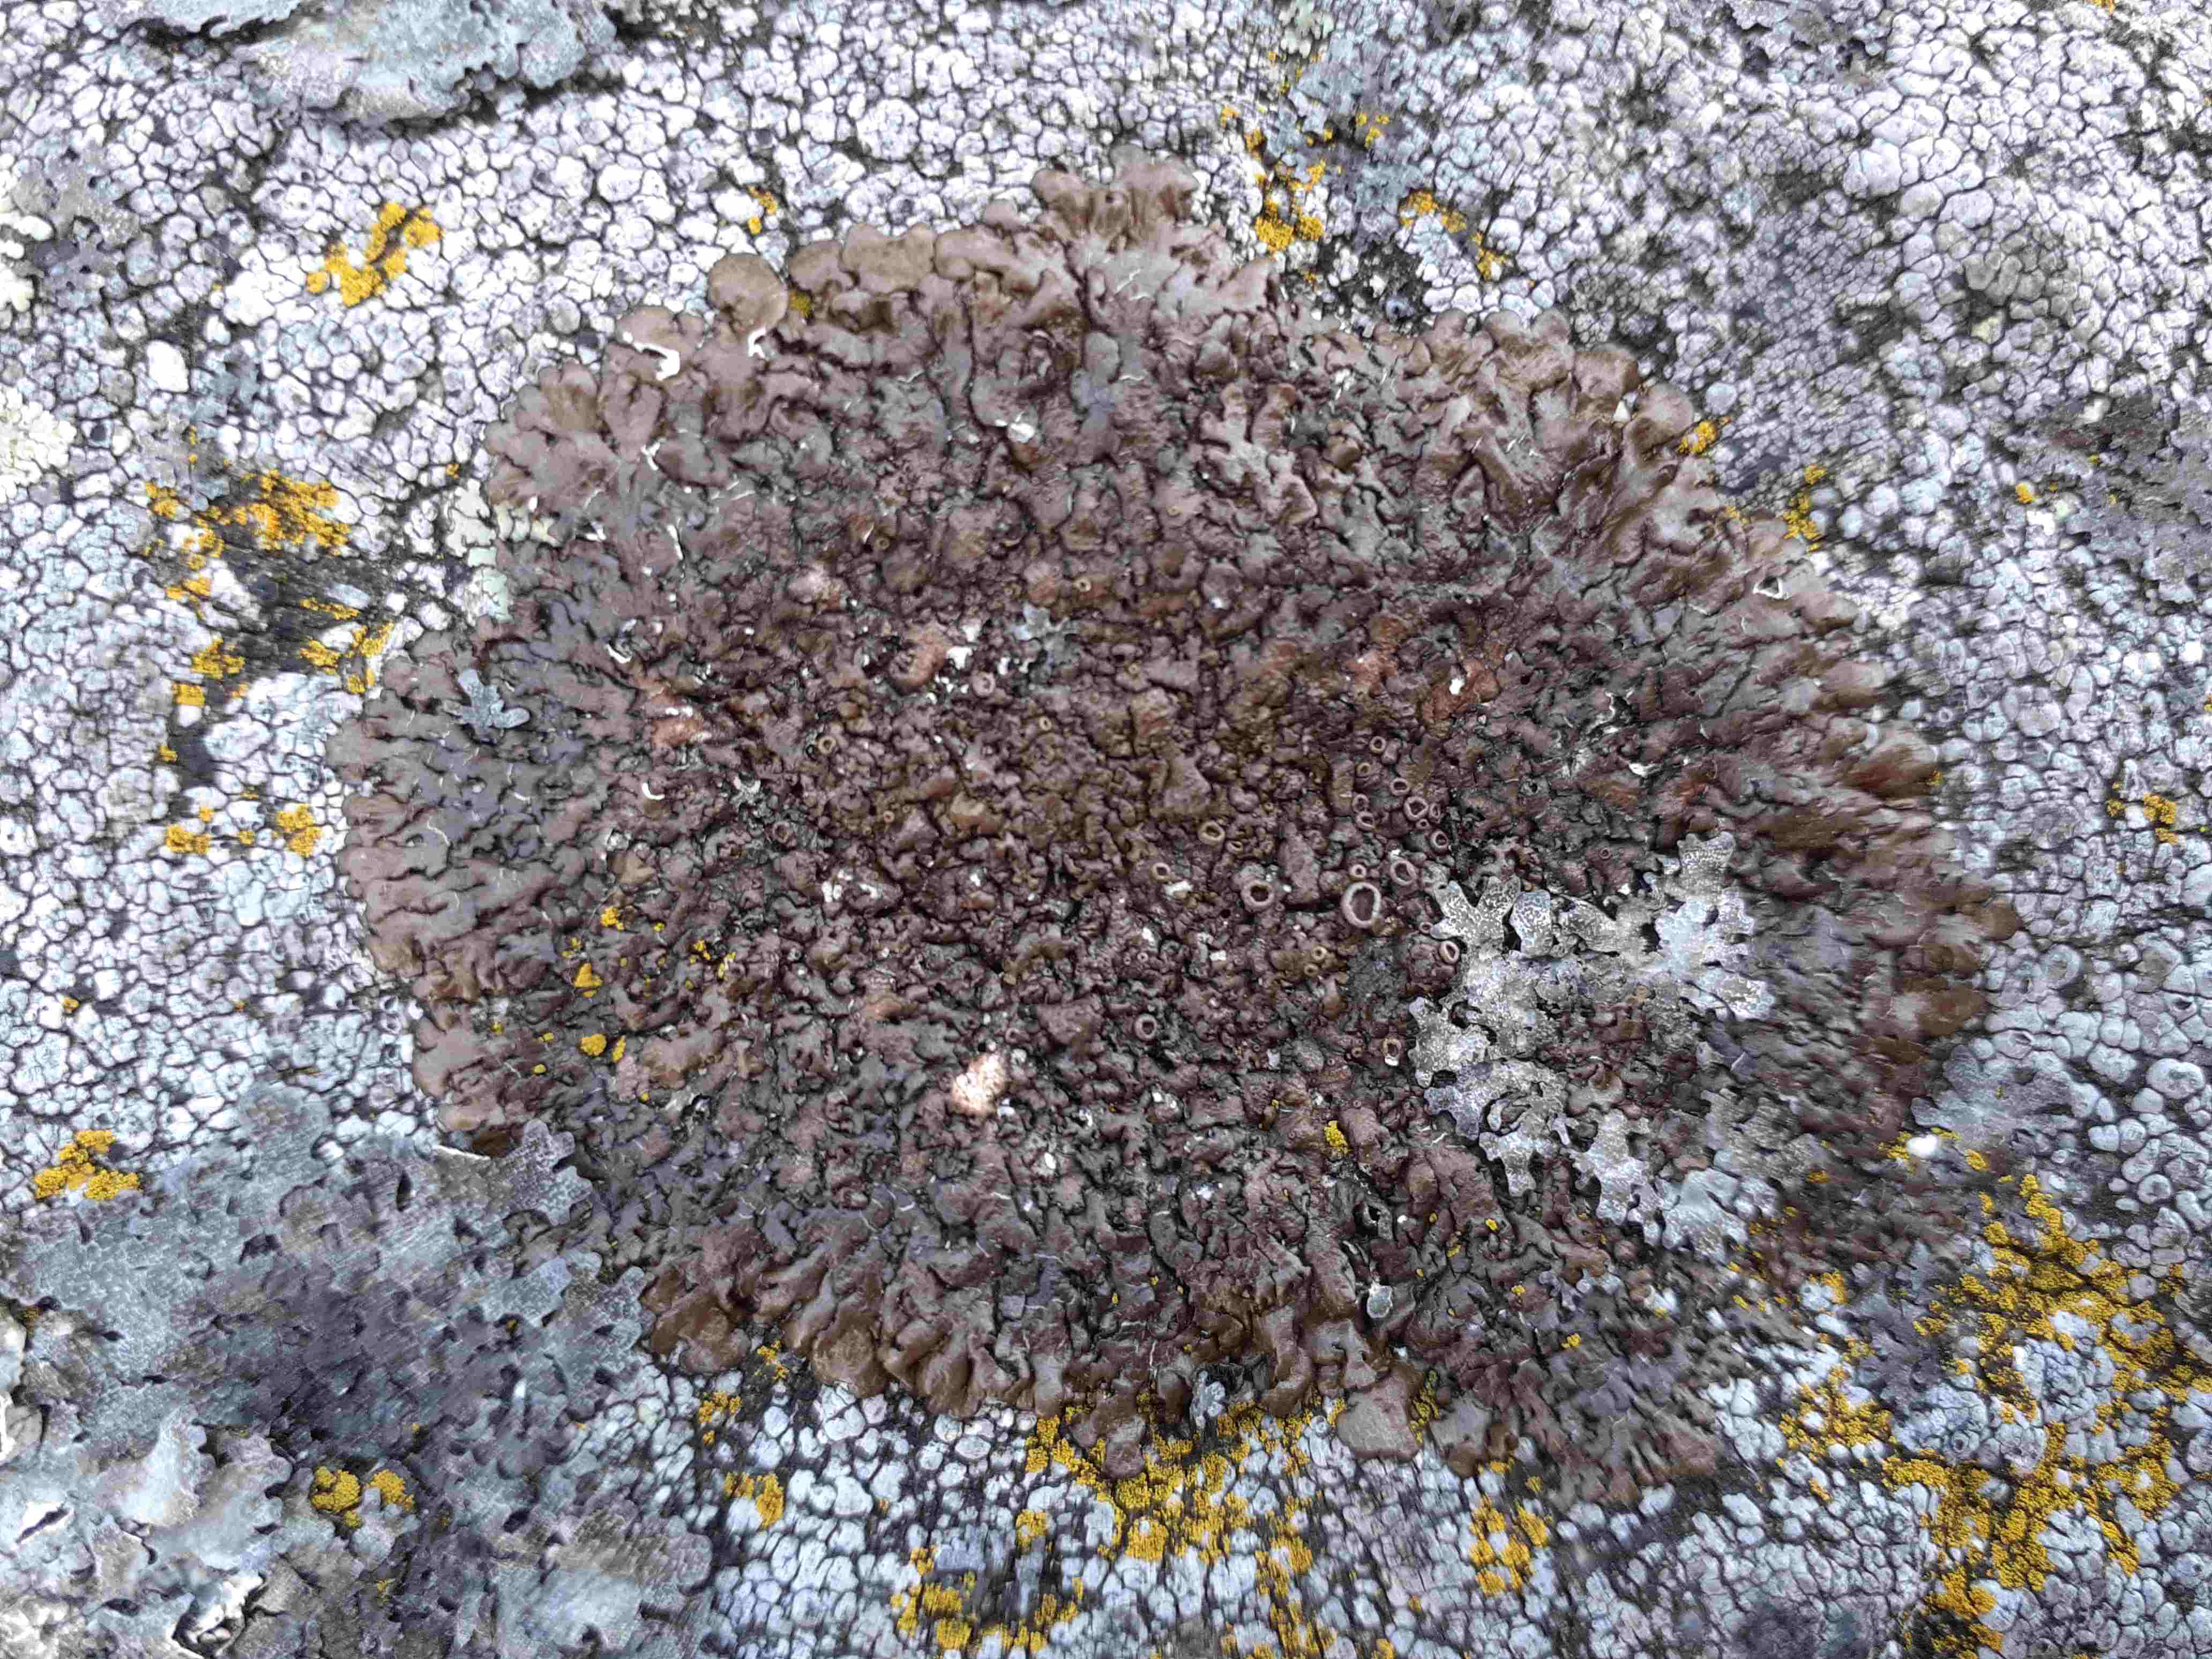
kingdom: Fungi
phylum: Ascomycota
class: Lecanoromycetes
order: Lecanorales
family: Parmeliaceae
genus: Xanthoparmelia
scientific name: Xanthoparmelia pulla
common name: mørkebrun skållav
